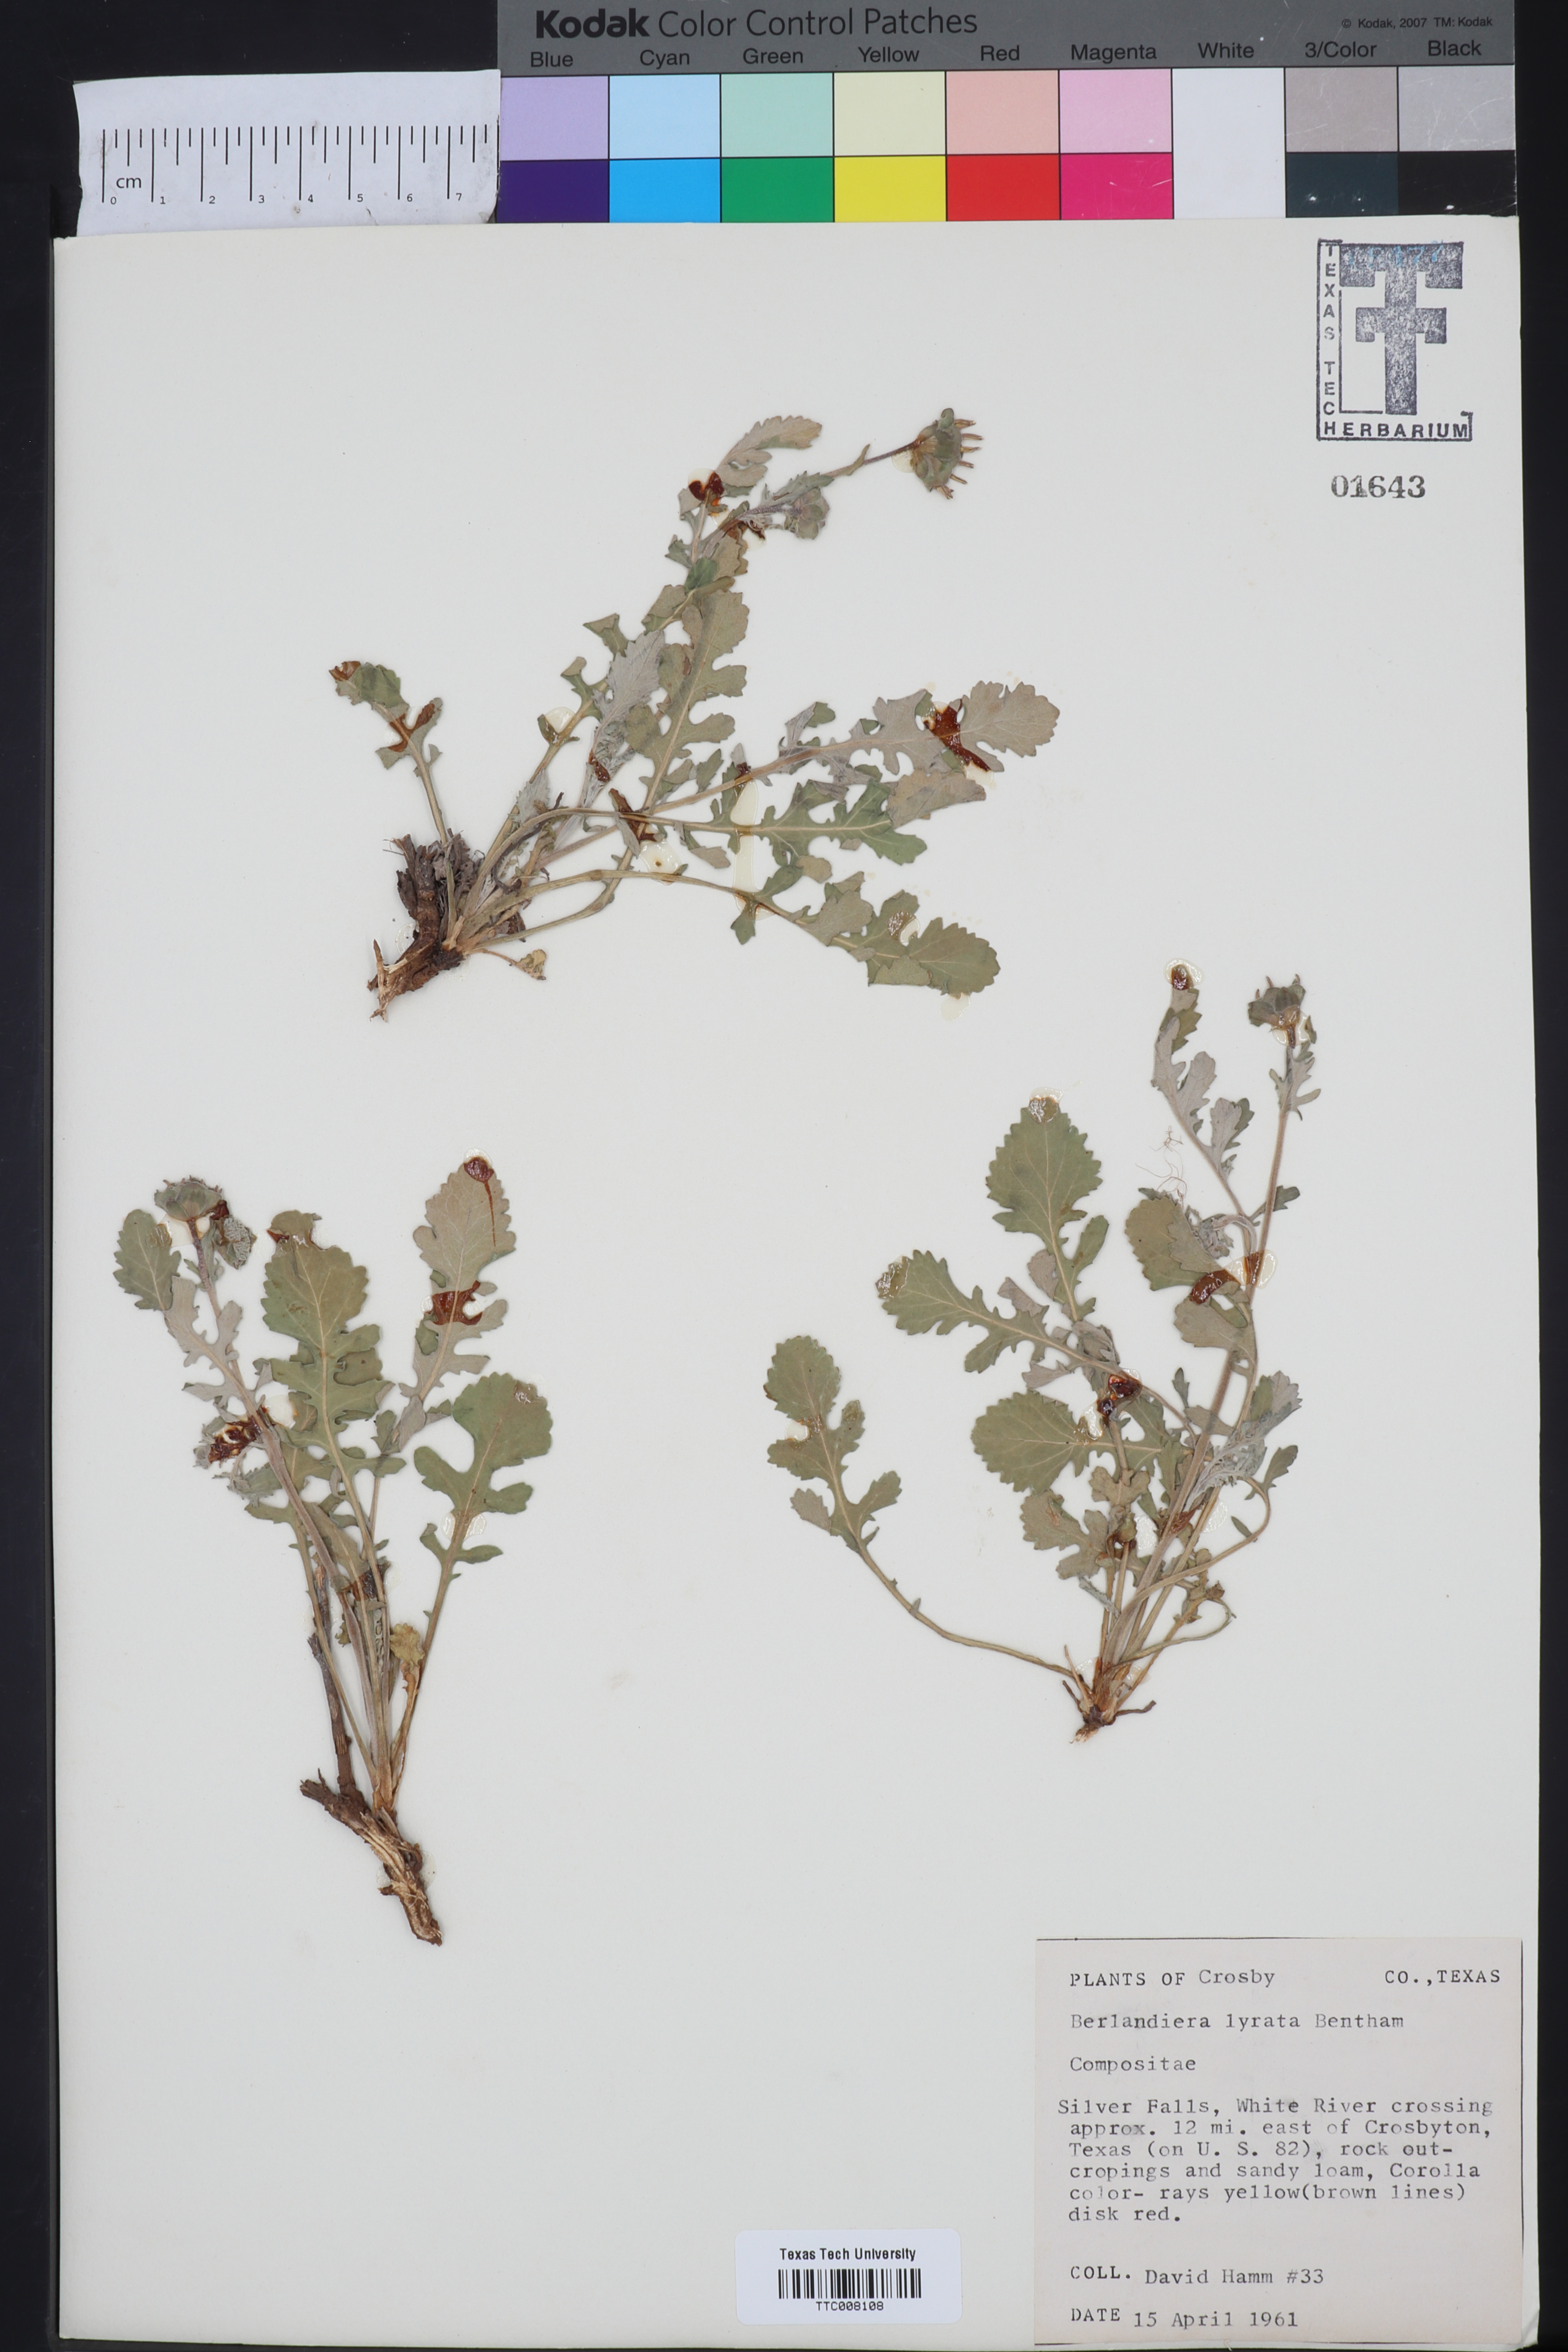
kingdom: Plantae
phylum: Tracheophyta
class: Magnoliopsida
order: Asterales
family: Asteraceae
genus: Berlandiera
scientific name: Berlandiera lyrata
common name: Chocolate-flower
